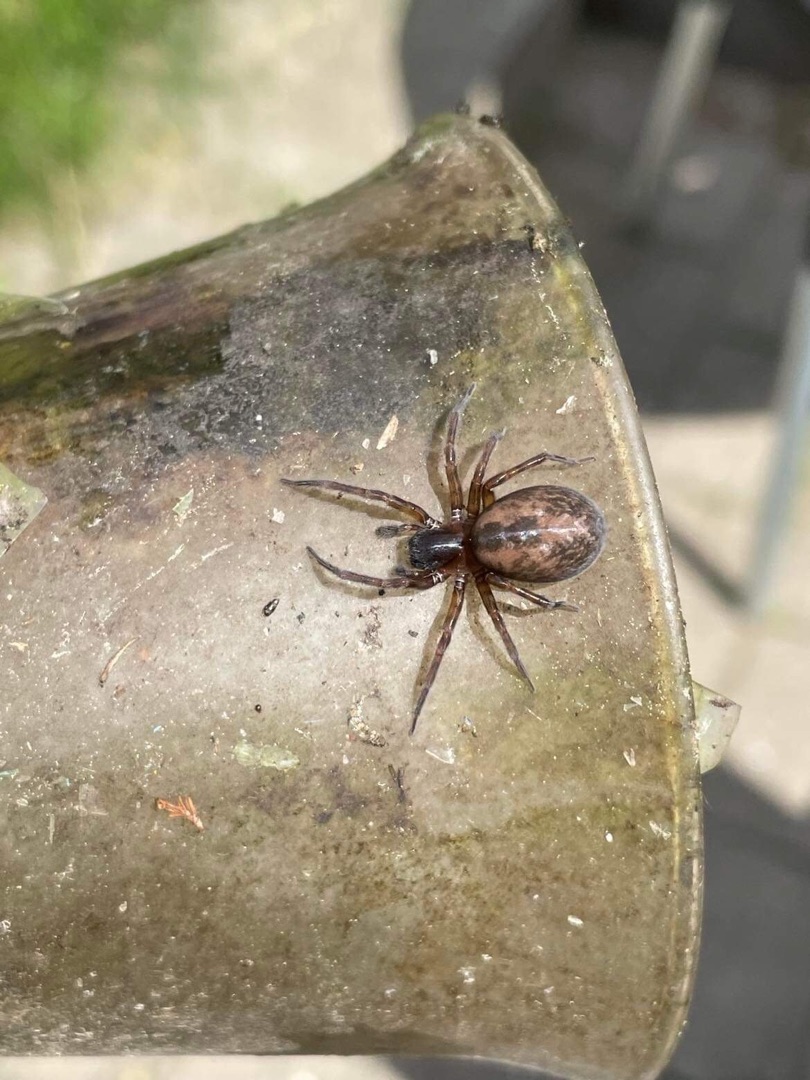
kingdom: Animalia
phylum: Arthropoda
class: Arachnida
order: Araneae
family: Amaurobiidae
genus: Amaurobius
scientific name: Amaurobius similis
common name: Huskartespinder
